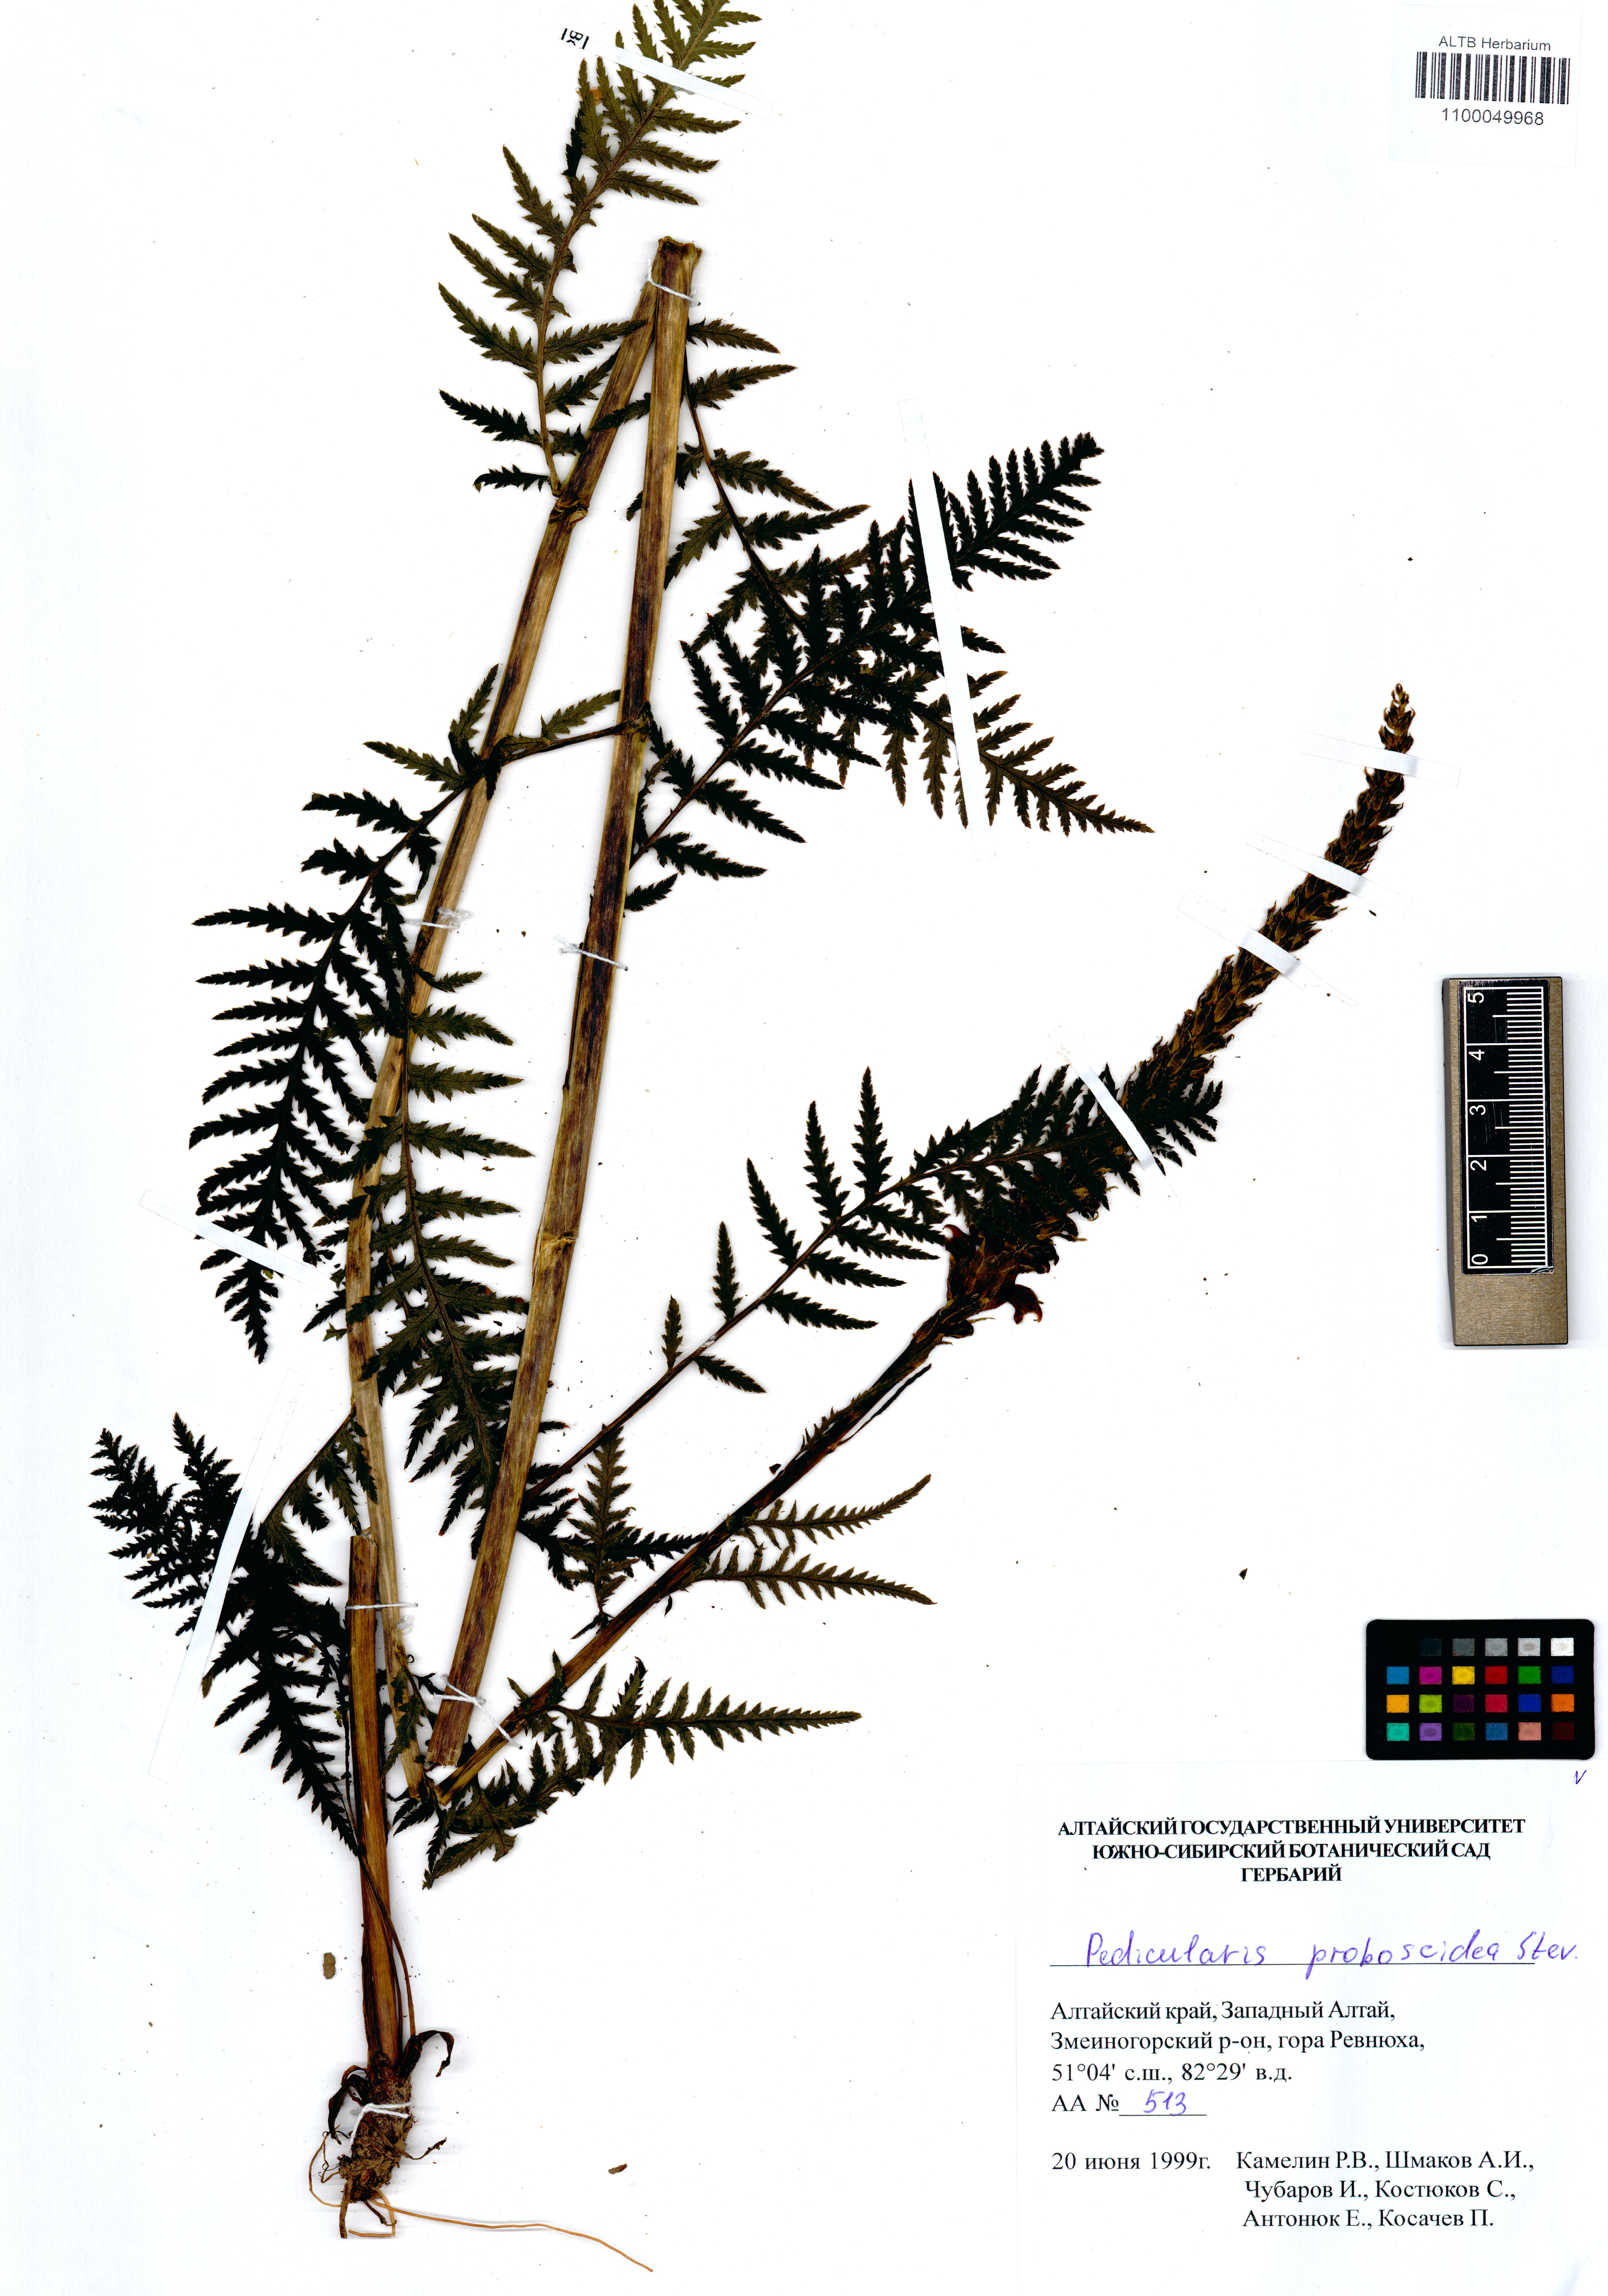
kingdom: Plantae
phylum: Tracheophyta
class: Magnoliopsida
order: Lamiales
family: Orobanchaceae
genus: Pedicularis
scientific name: Pedicularis proboscidea
